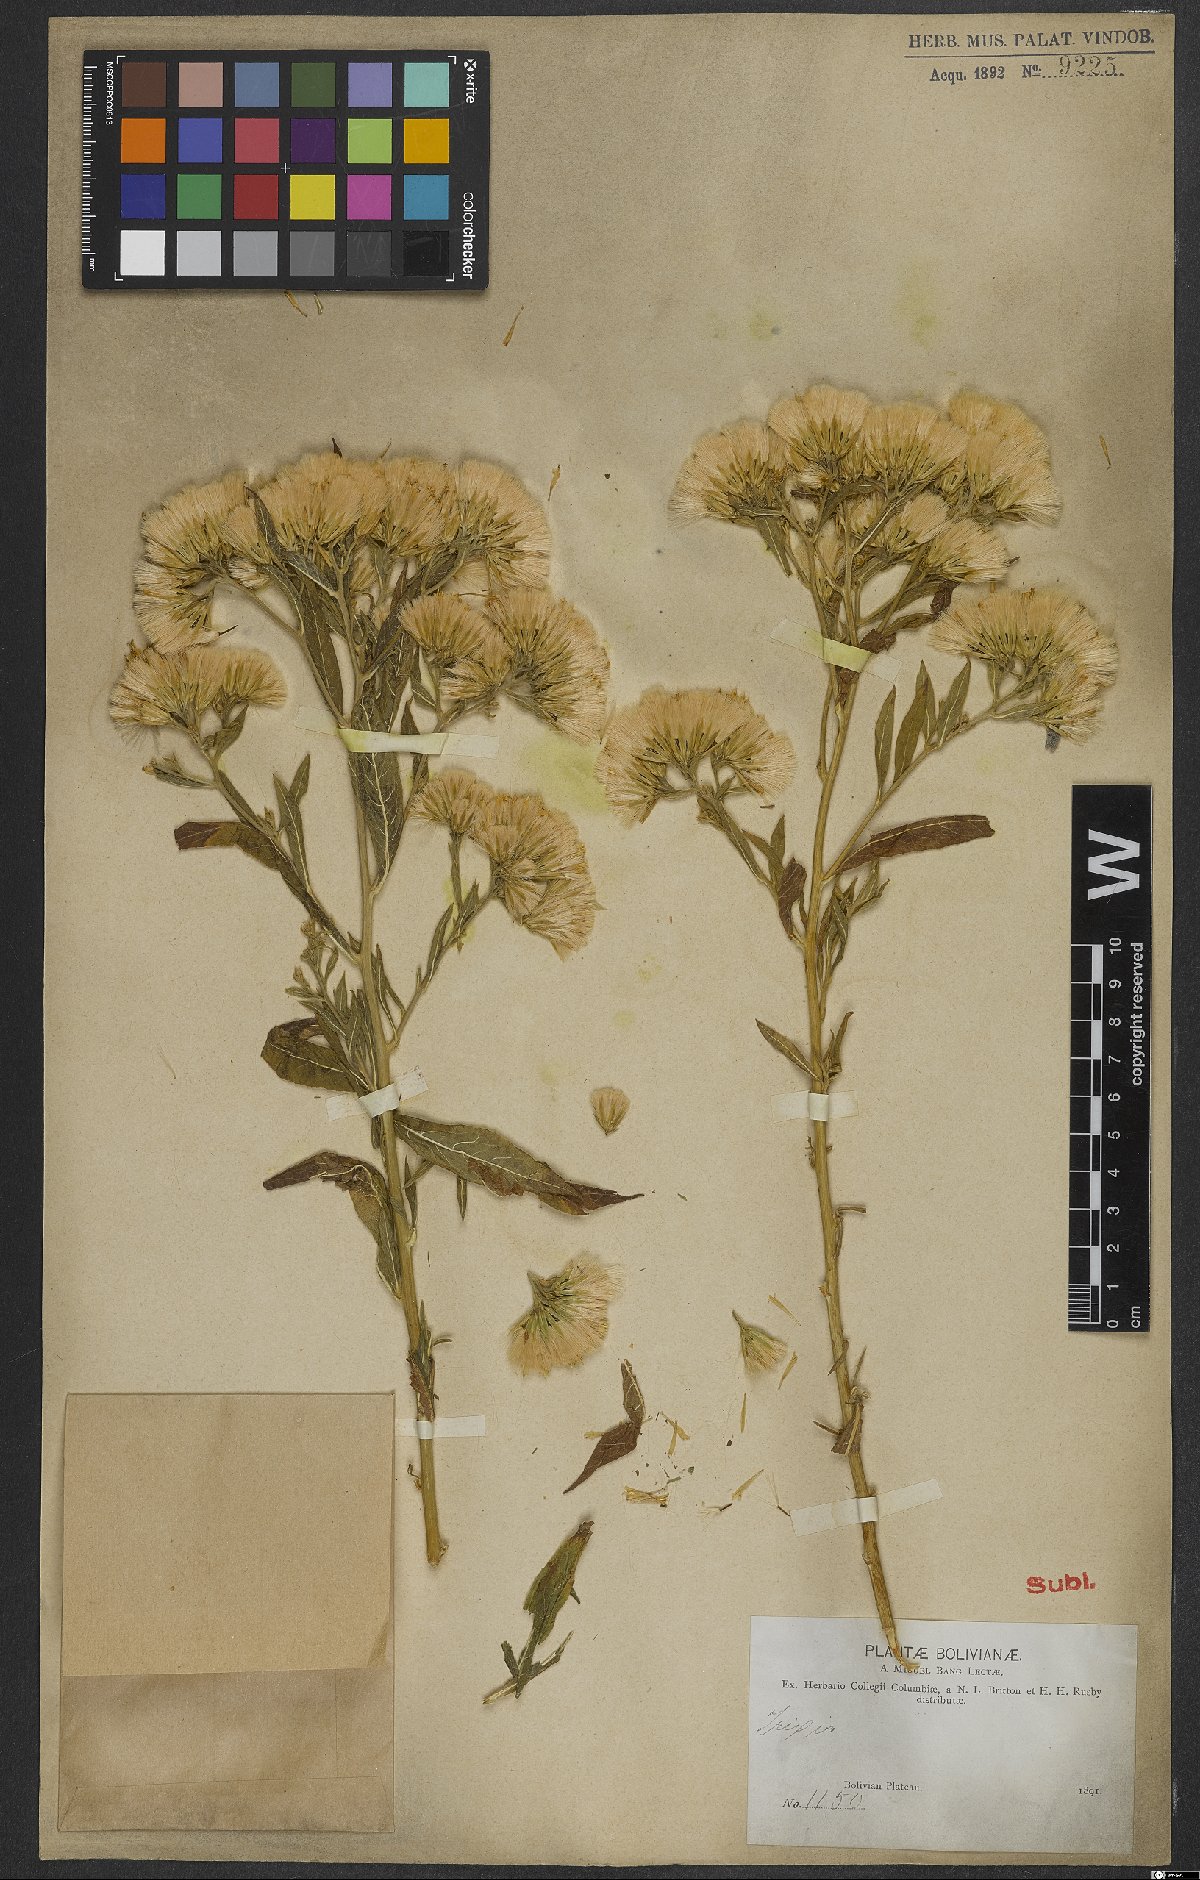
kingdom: Plantae
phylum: Tracheophyta
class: Magnoliopsida
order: Asterales
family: Asteraceae
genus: Trixis
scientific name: Trixis vauthieri
